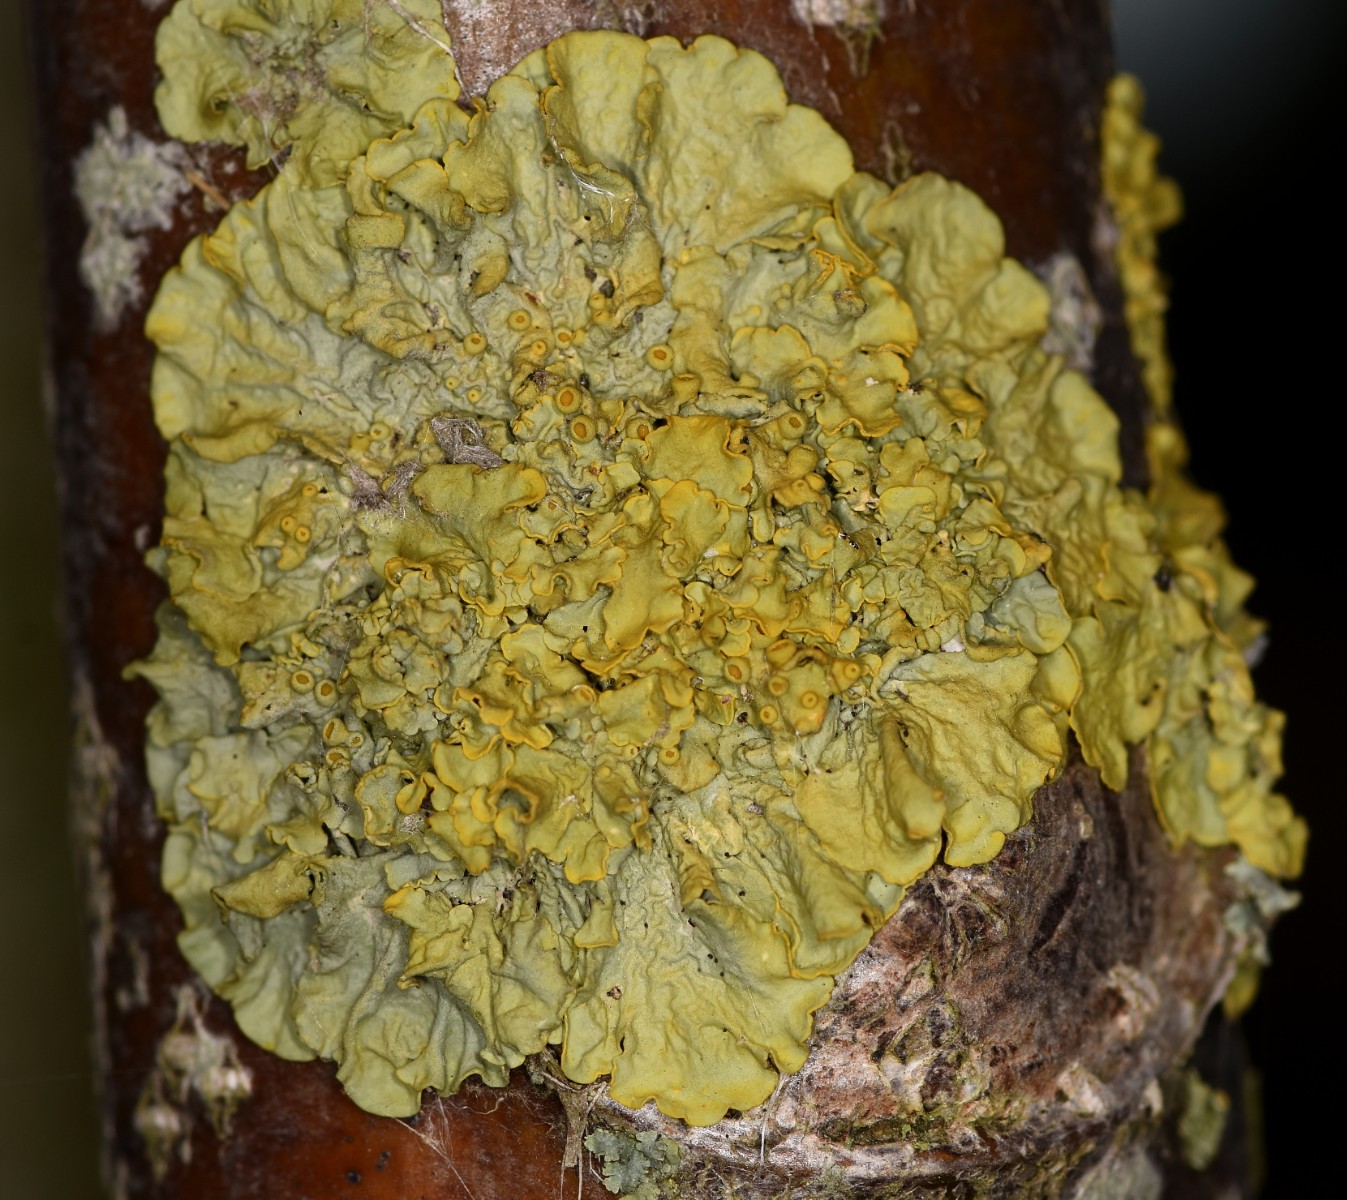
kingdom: Fungi
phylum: Ascomycota
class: Lecanoromycetes
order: Teloschistales
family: Teloschistaceae
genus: Xanthoria
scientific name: Xanthoria parietina
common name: almindelig væggelav
